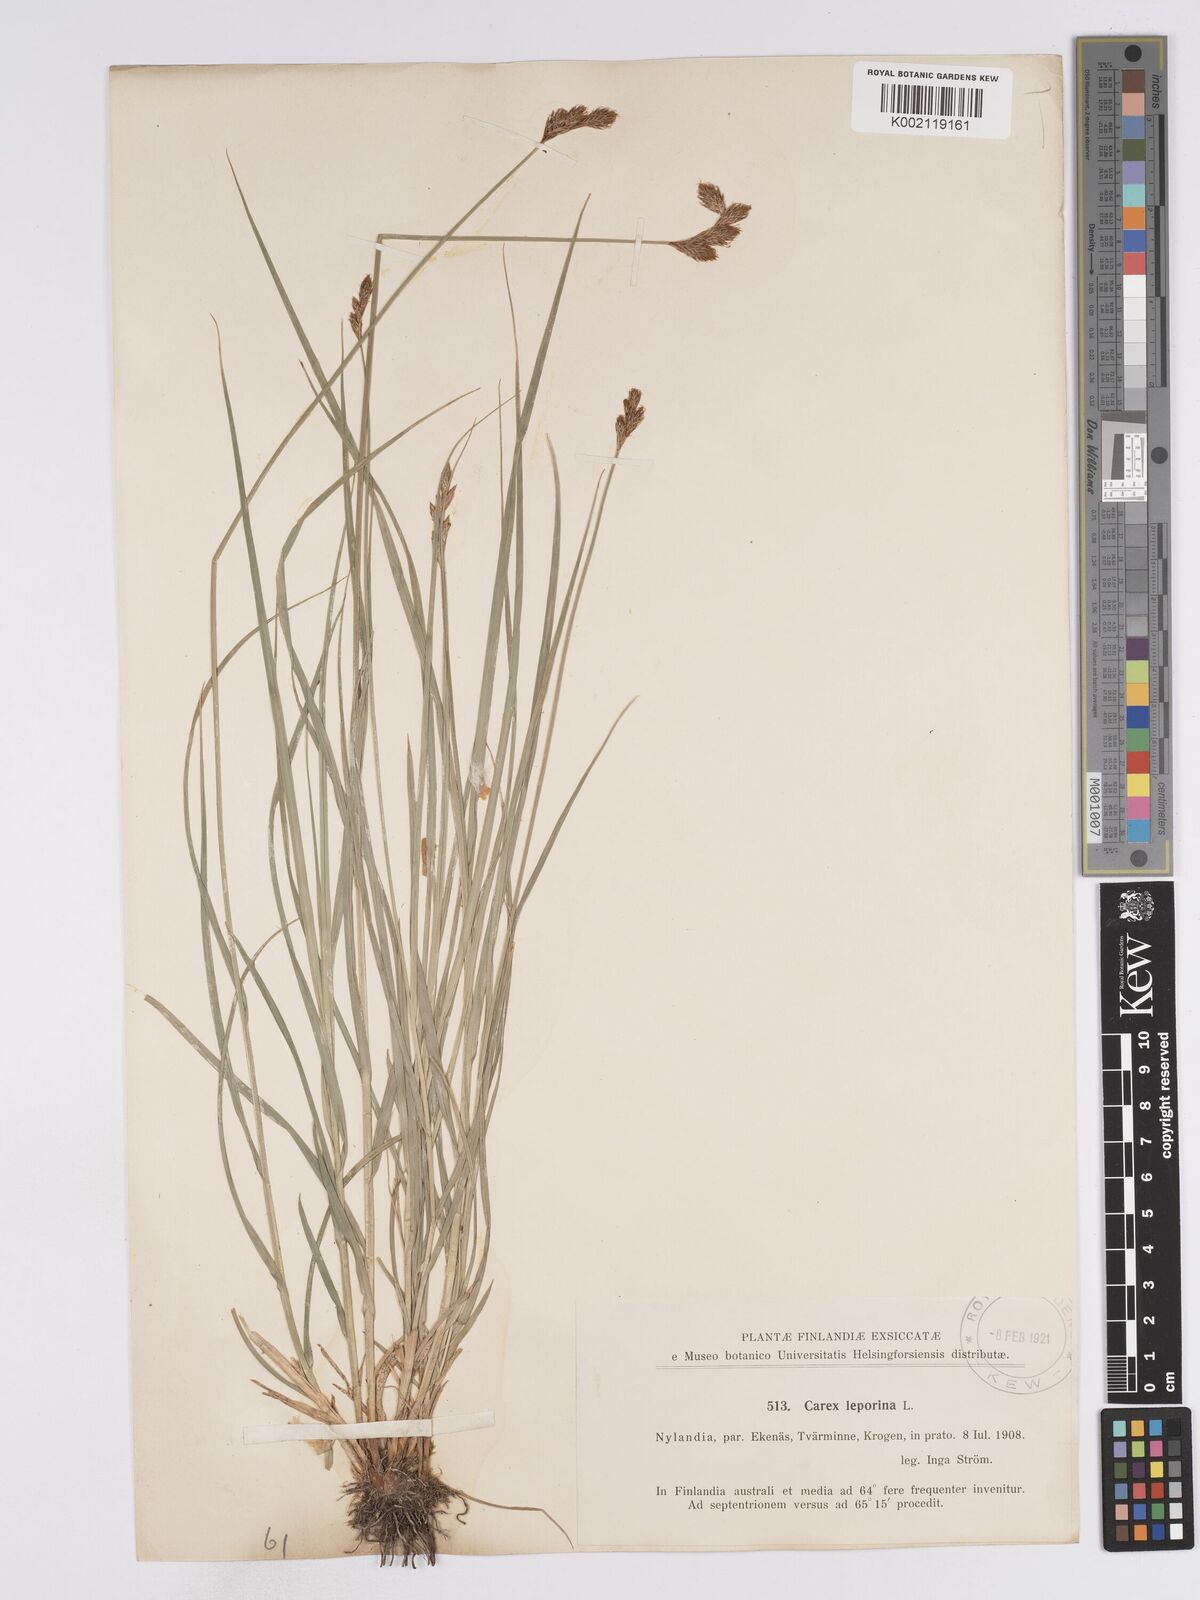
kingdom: Plantae
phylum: Tracheophyta
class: Liliopsida
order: Poales
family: Cyperaceae
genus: Carex
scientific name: Carex leporina
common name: Oval sedge
